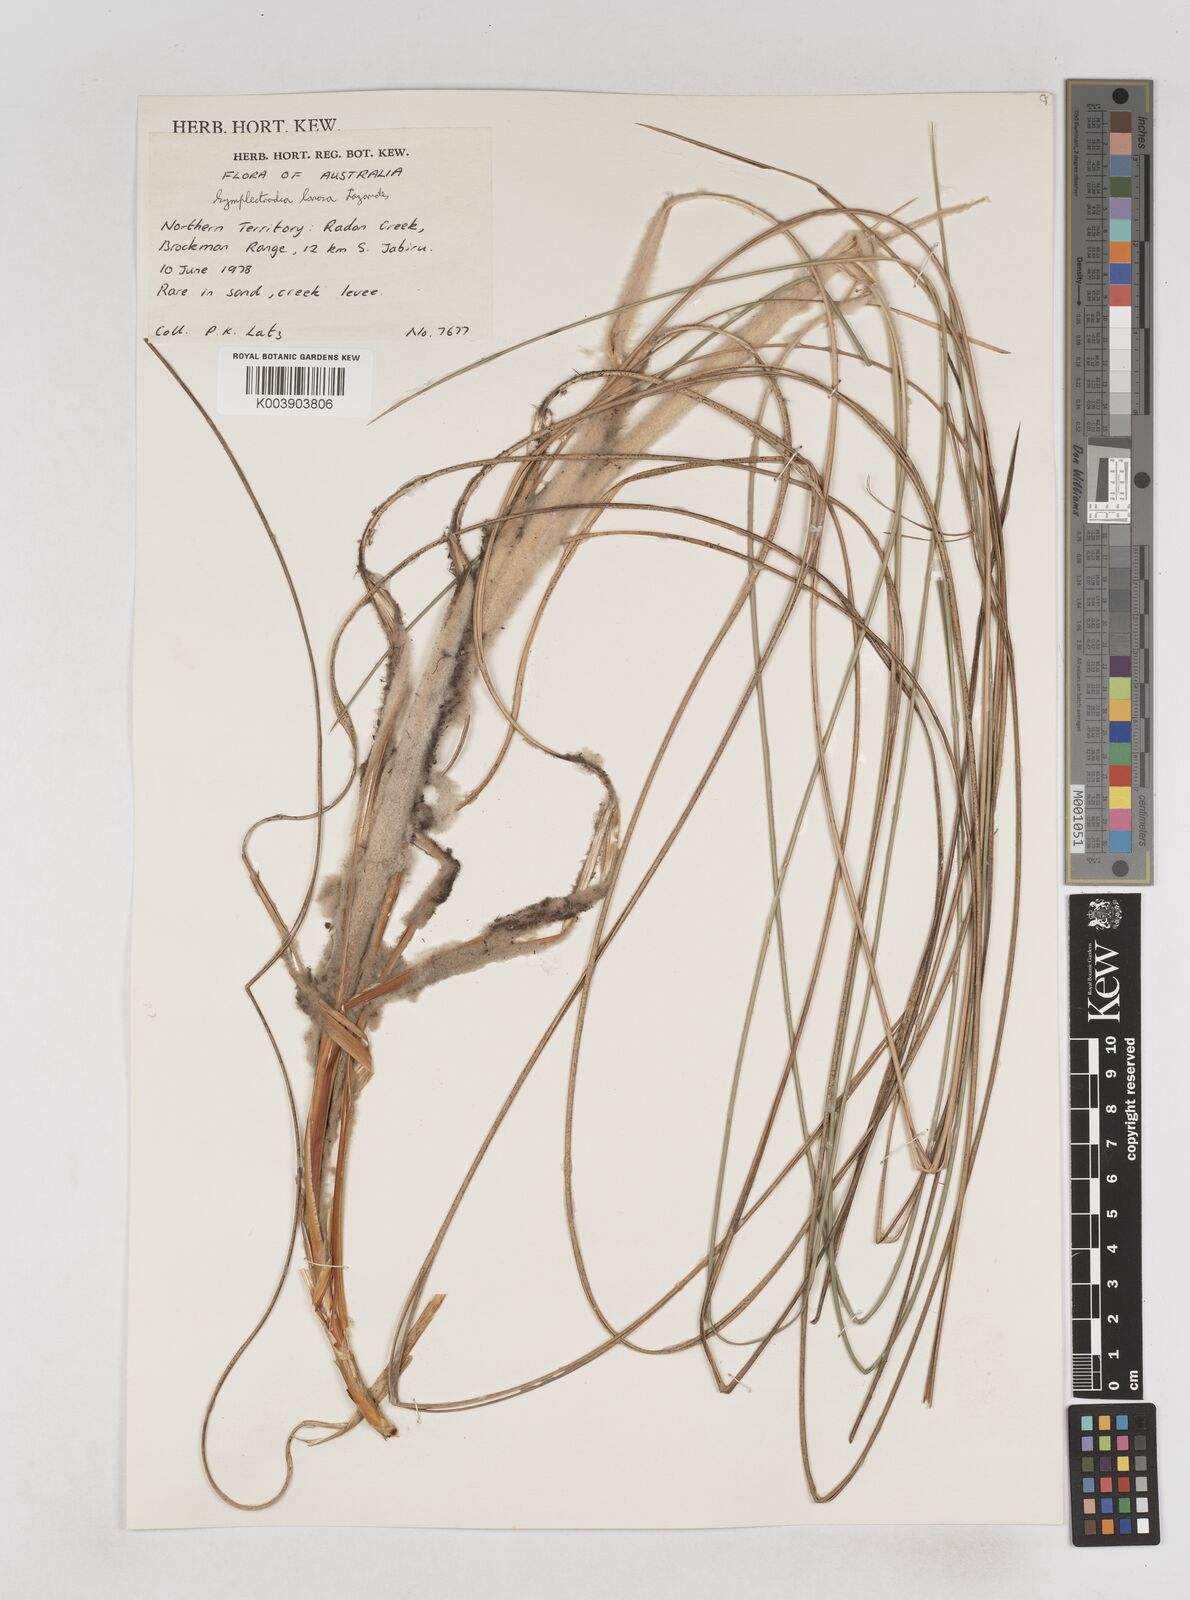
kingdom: Plantae
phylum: Tracheophyta
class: Liliopsida
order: Poales
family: Poaceae
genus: Triodia
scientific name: Triodia lanosa
